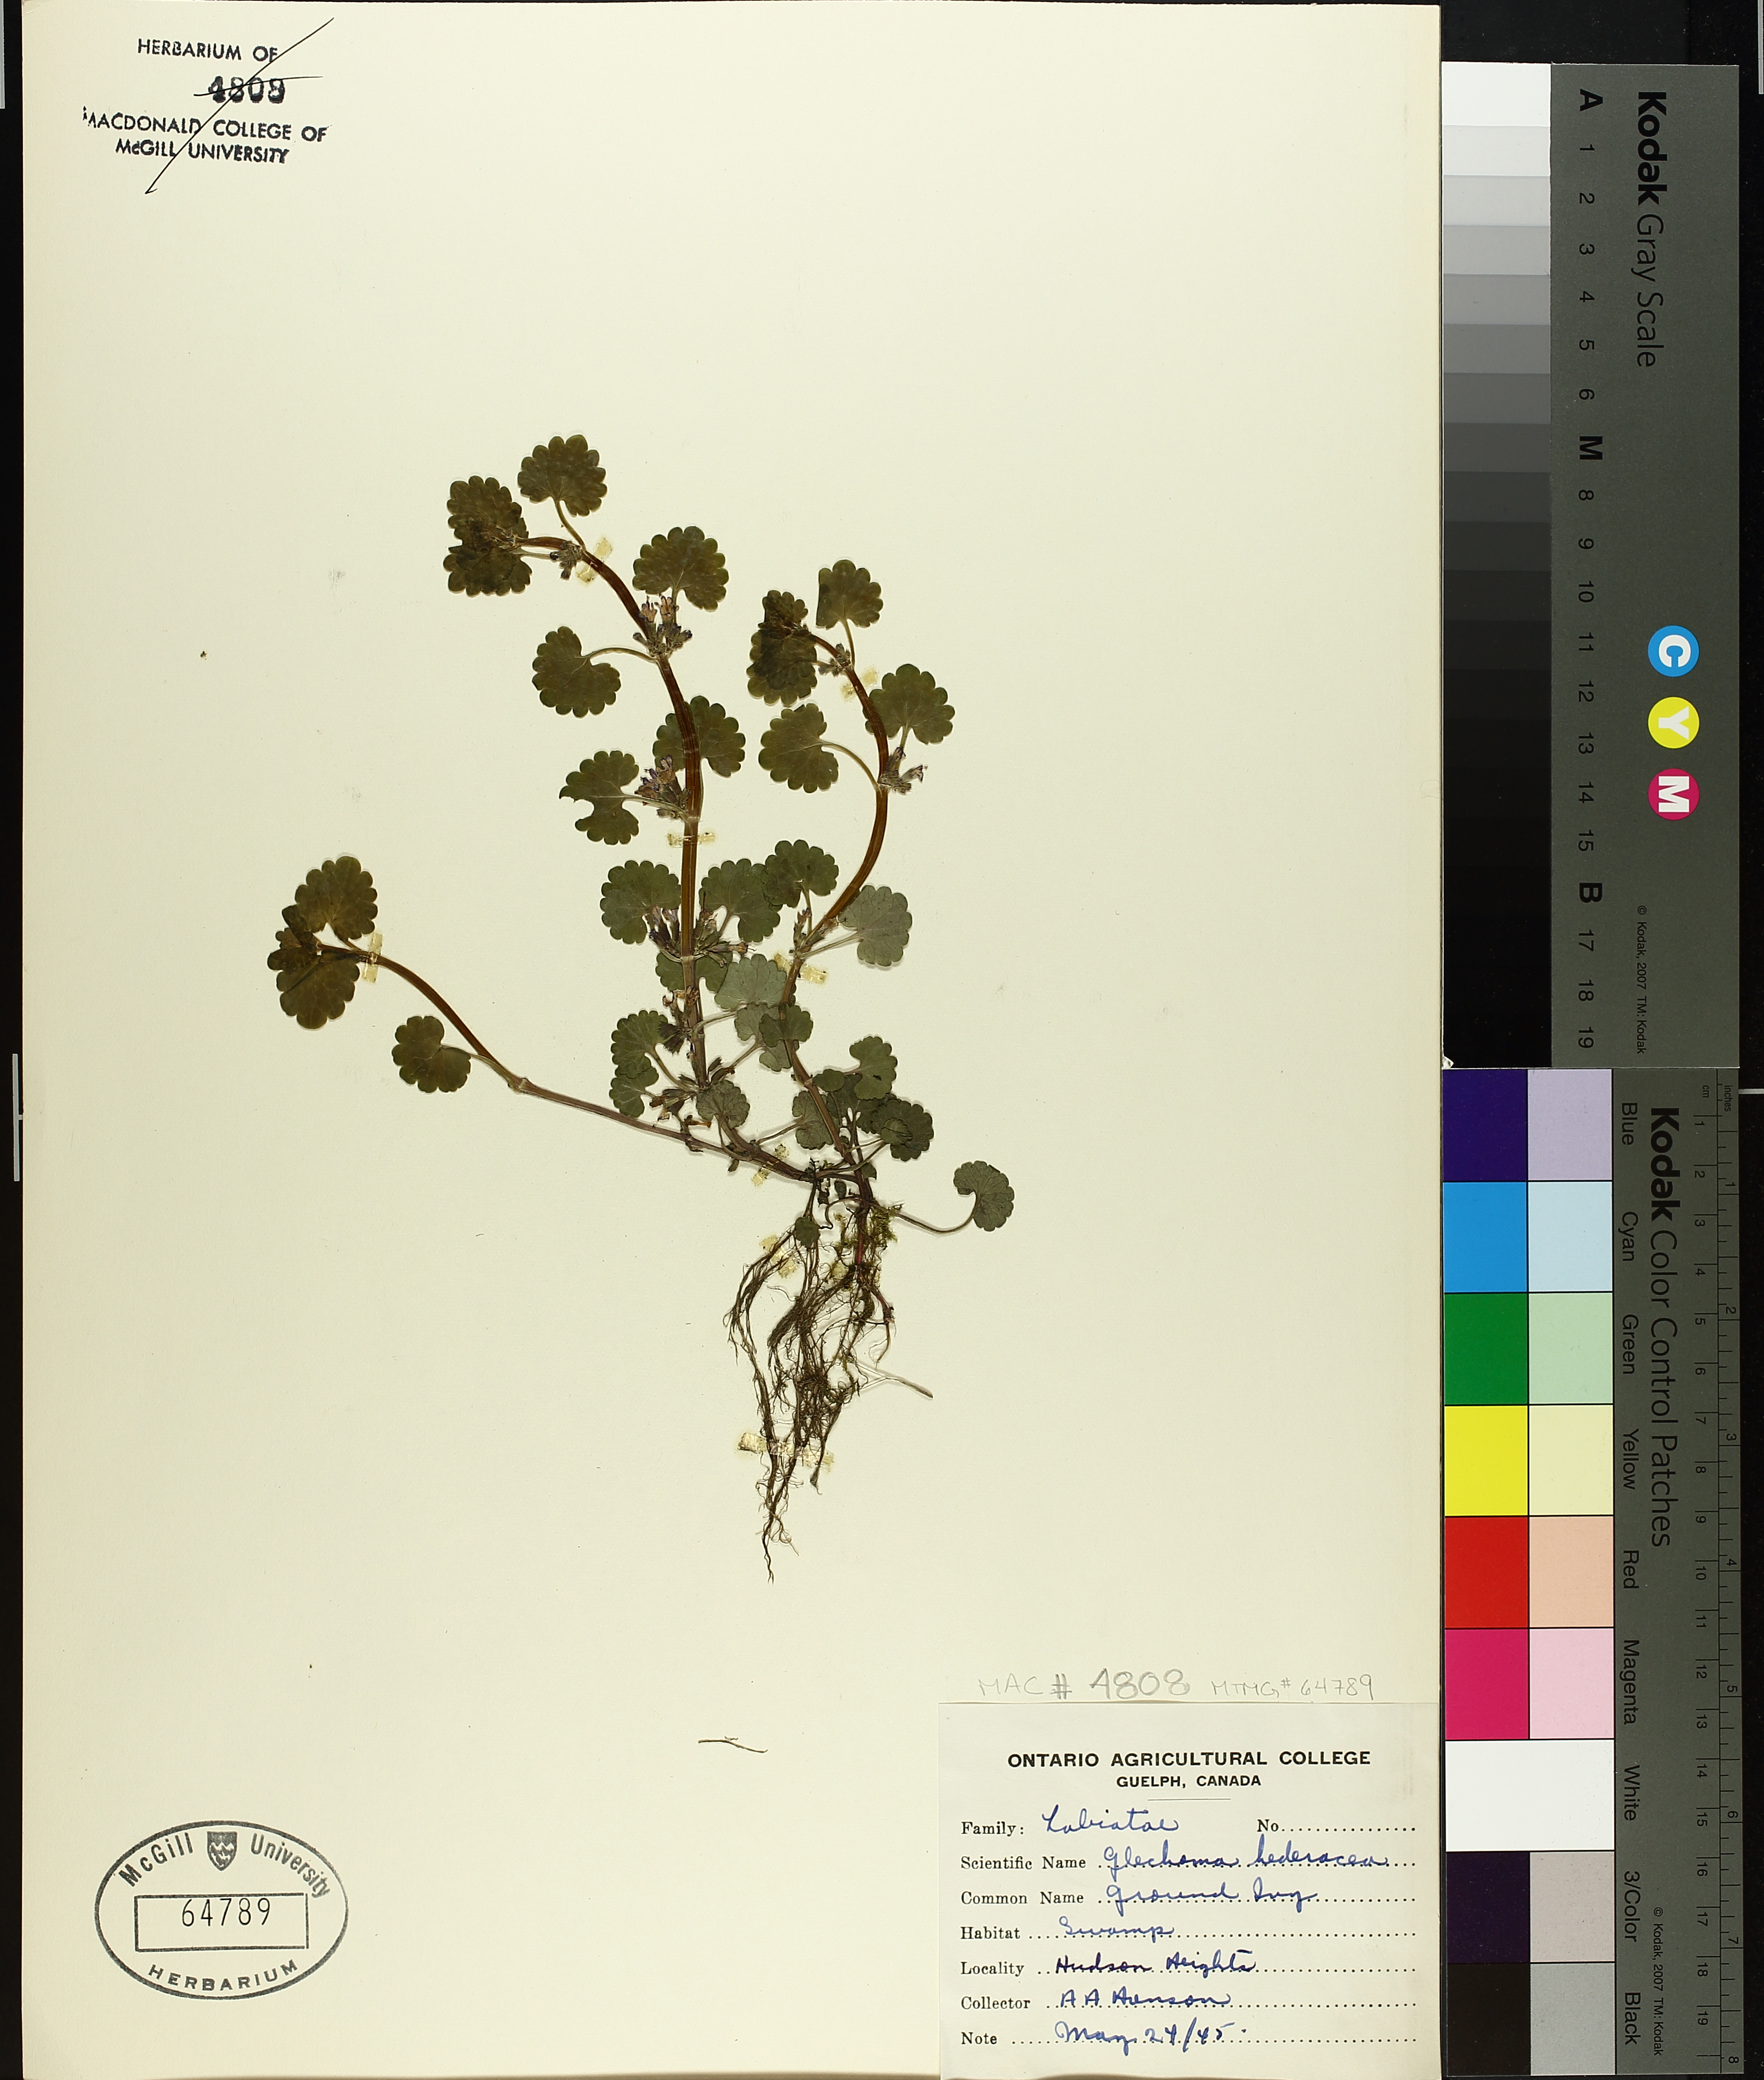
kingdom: Plantae
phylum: Tracheophyta
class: Magnoliopsida
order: Lamiales
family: Lamiaceae
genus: Glechoma
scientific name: Glechoma hederacea
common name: Ground ivy
